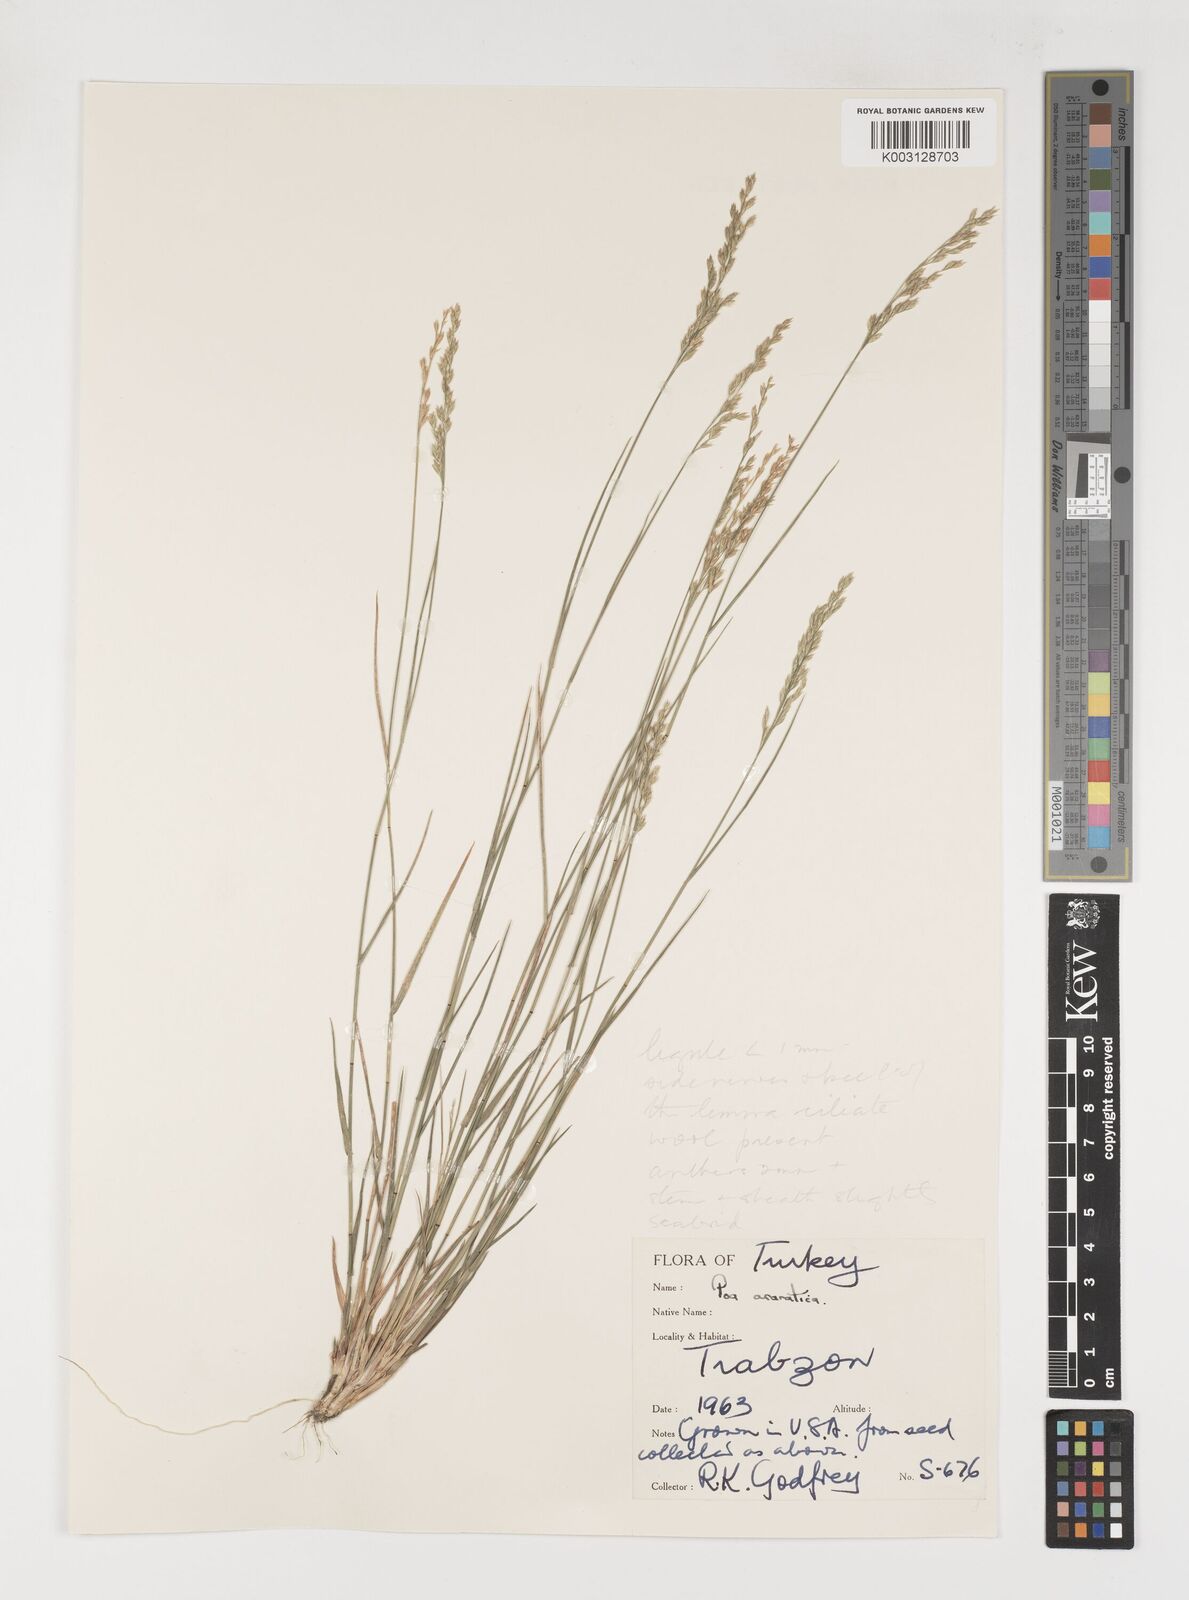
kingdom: Plantae
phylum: Tracheophyta
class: Liliopsida
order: Poales
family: Poaceae
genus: Poa
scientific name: Poa araratica
